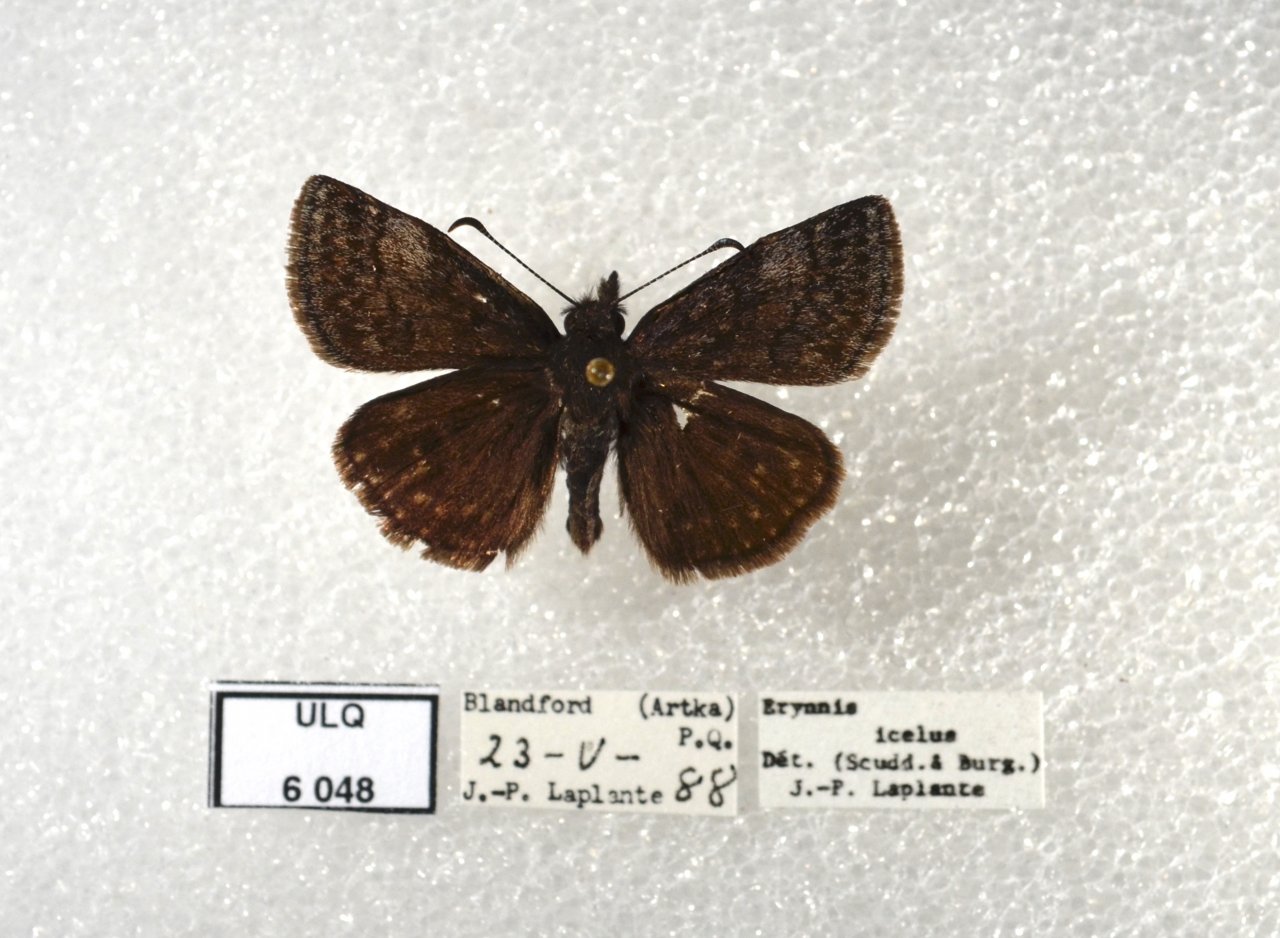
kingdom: Animalia
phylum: Arthropoda
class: Insecta
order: Lepidoptera
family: Hesperiidae
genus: Erynnis
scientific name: Erynnis icelus
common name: Dreamy Duskywing
